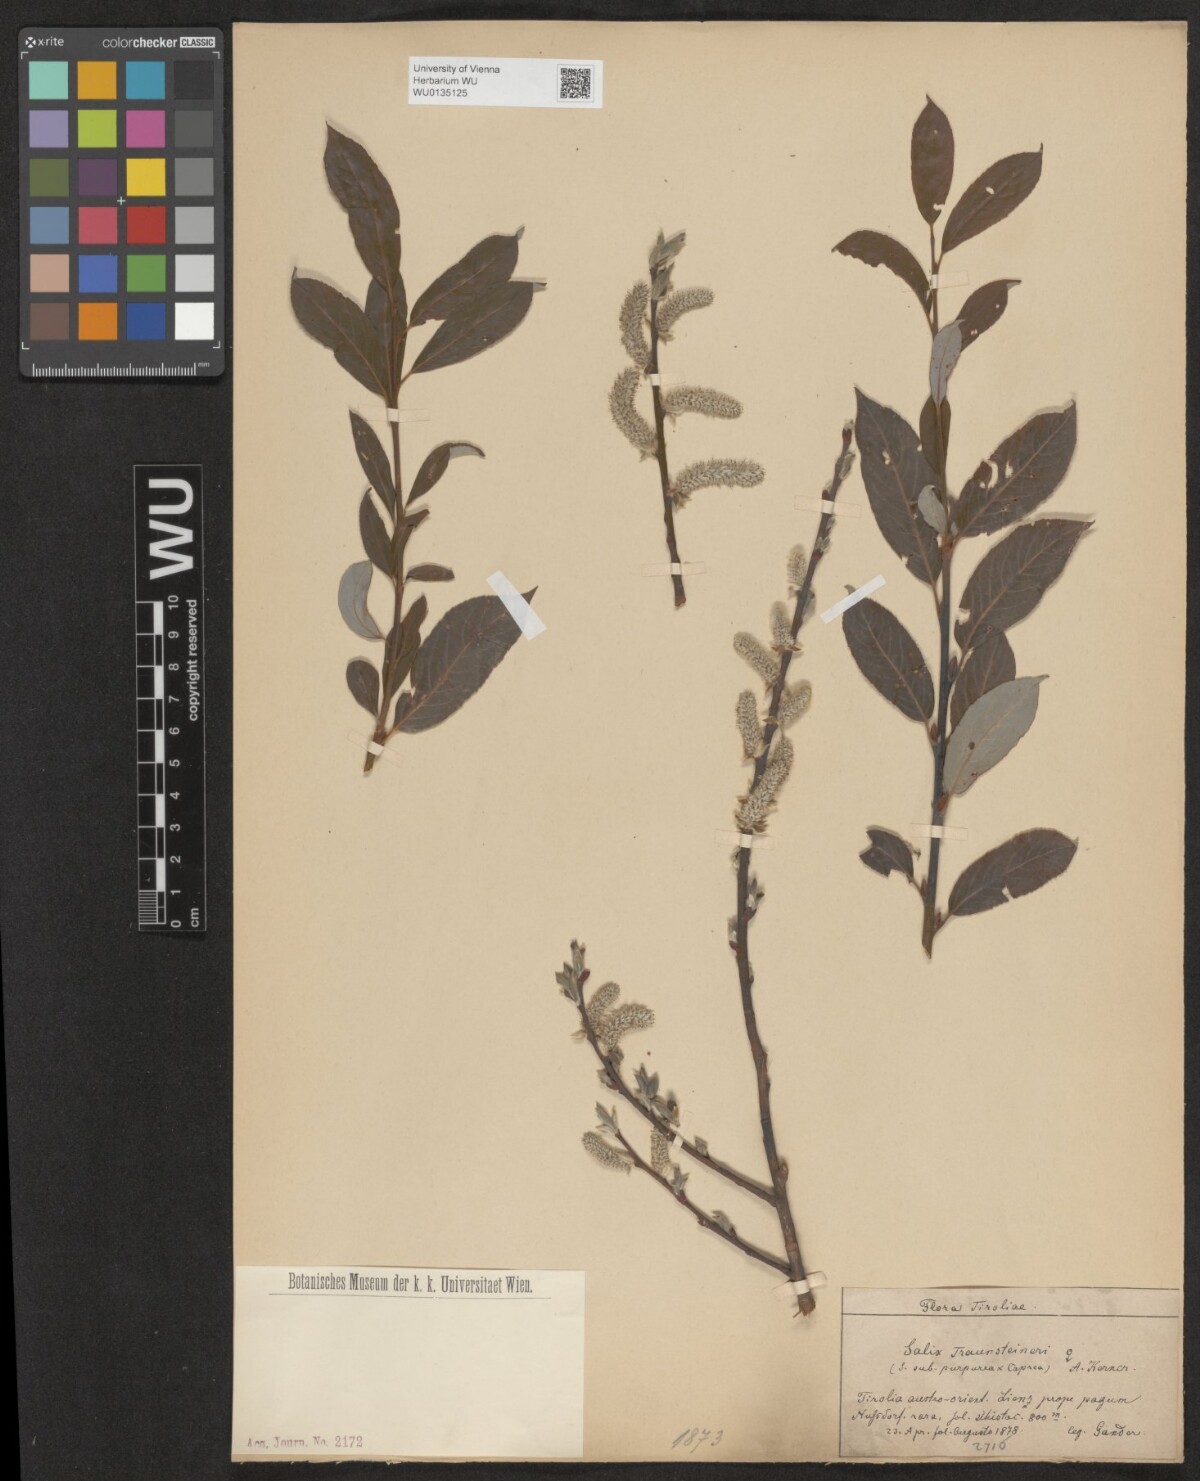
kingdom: Plantae
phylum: Tracheophyta
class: Magnoliopsida
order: Malpighiales
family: Salicaceae
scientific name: Salicaceae
